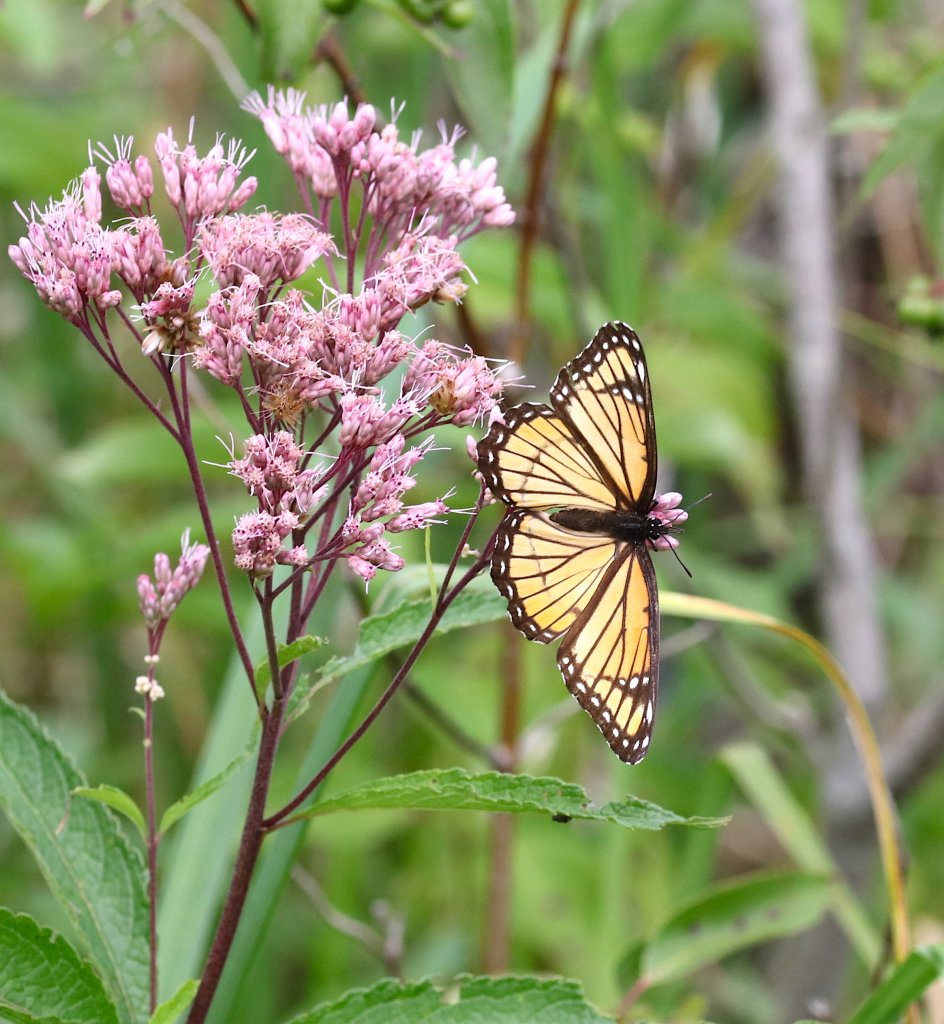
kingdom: Animalia
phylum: Arthropoda
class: Insecta
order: Lepidoptera
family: Nymphalidae
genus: Limenitis
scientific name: Limenitis archippus
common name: Viceroy
